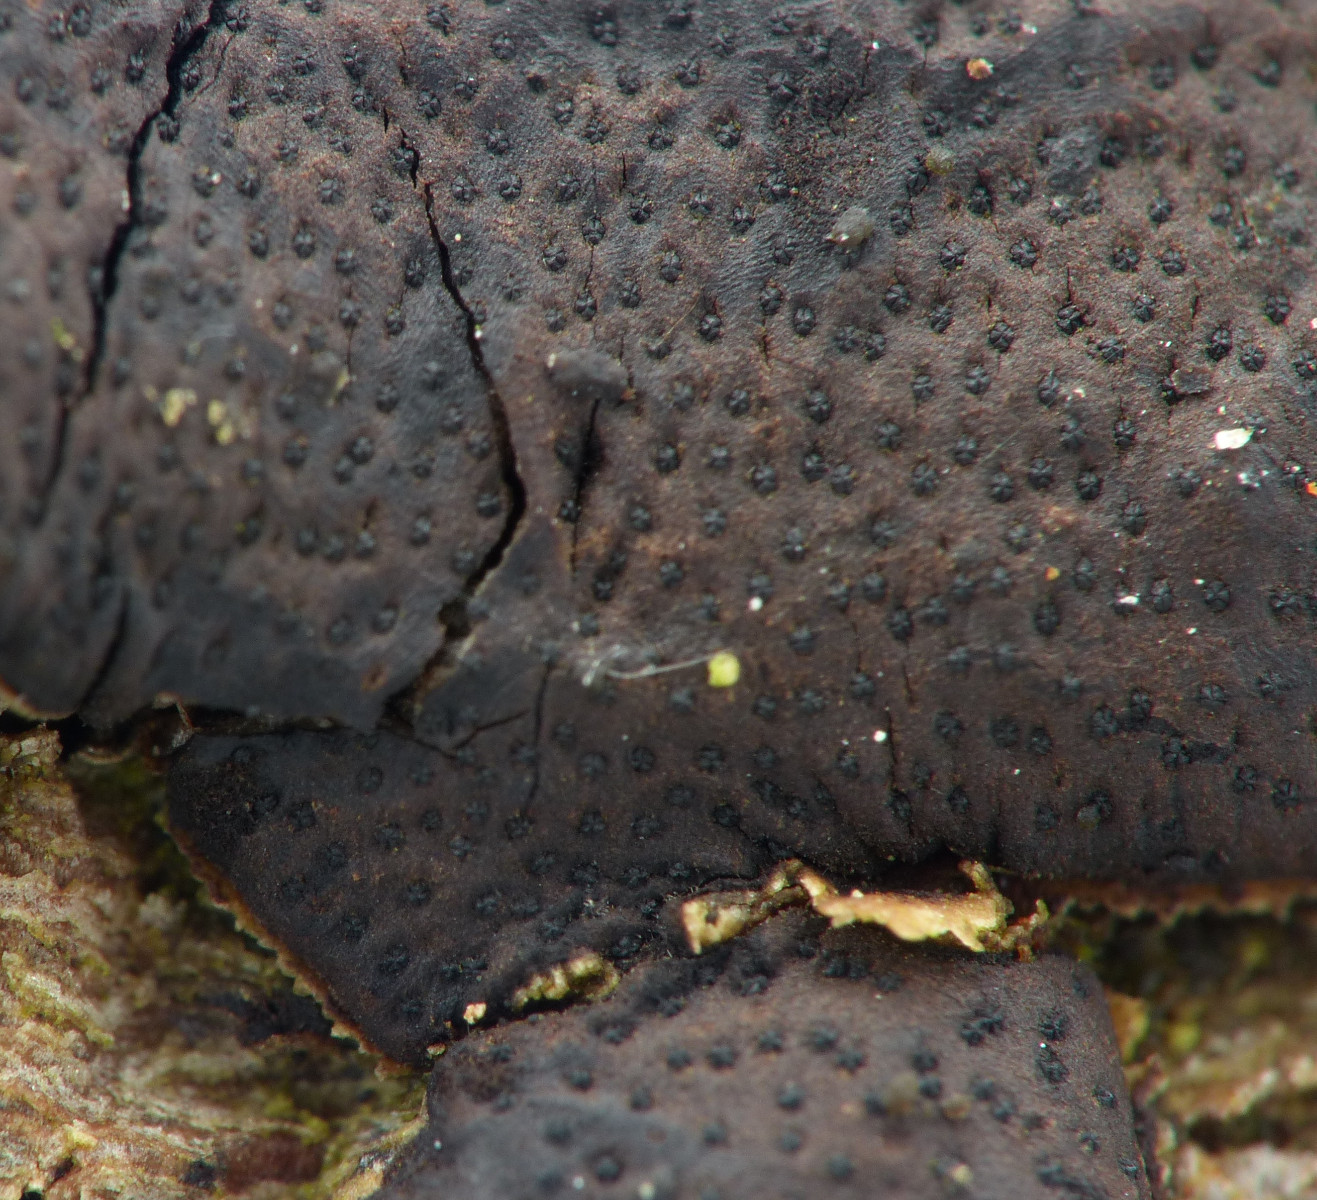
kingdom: Fungi
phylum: Ascomycota
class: Sordariomycetes
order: Xylariales
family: Diatrypaceae
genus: Diatrype
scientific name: Diatrype bullata
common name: pile-kulskorpe
